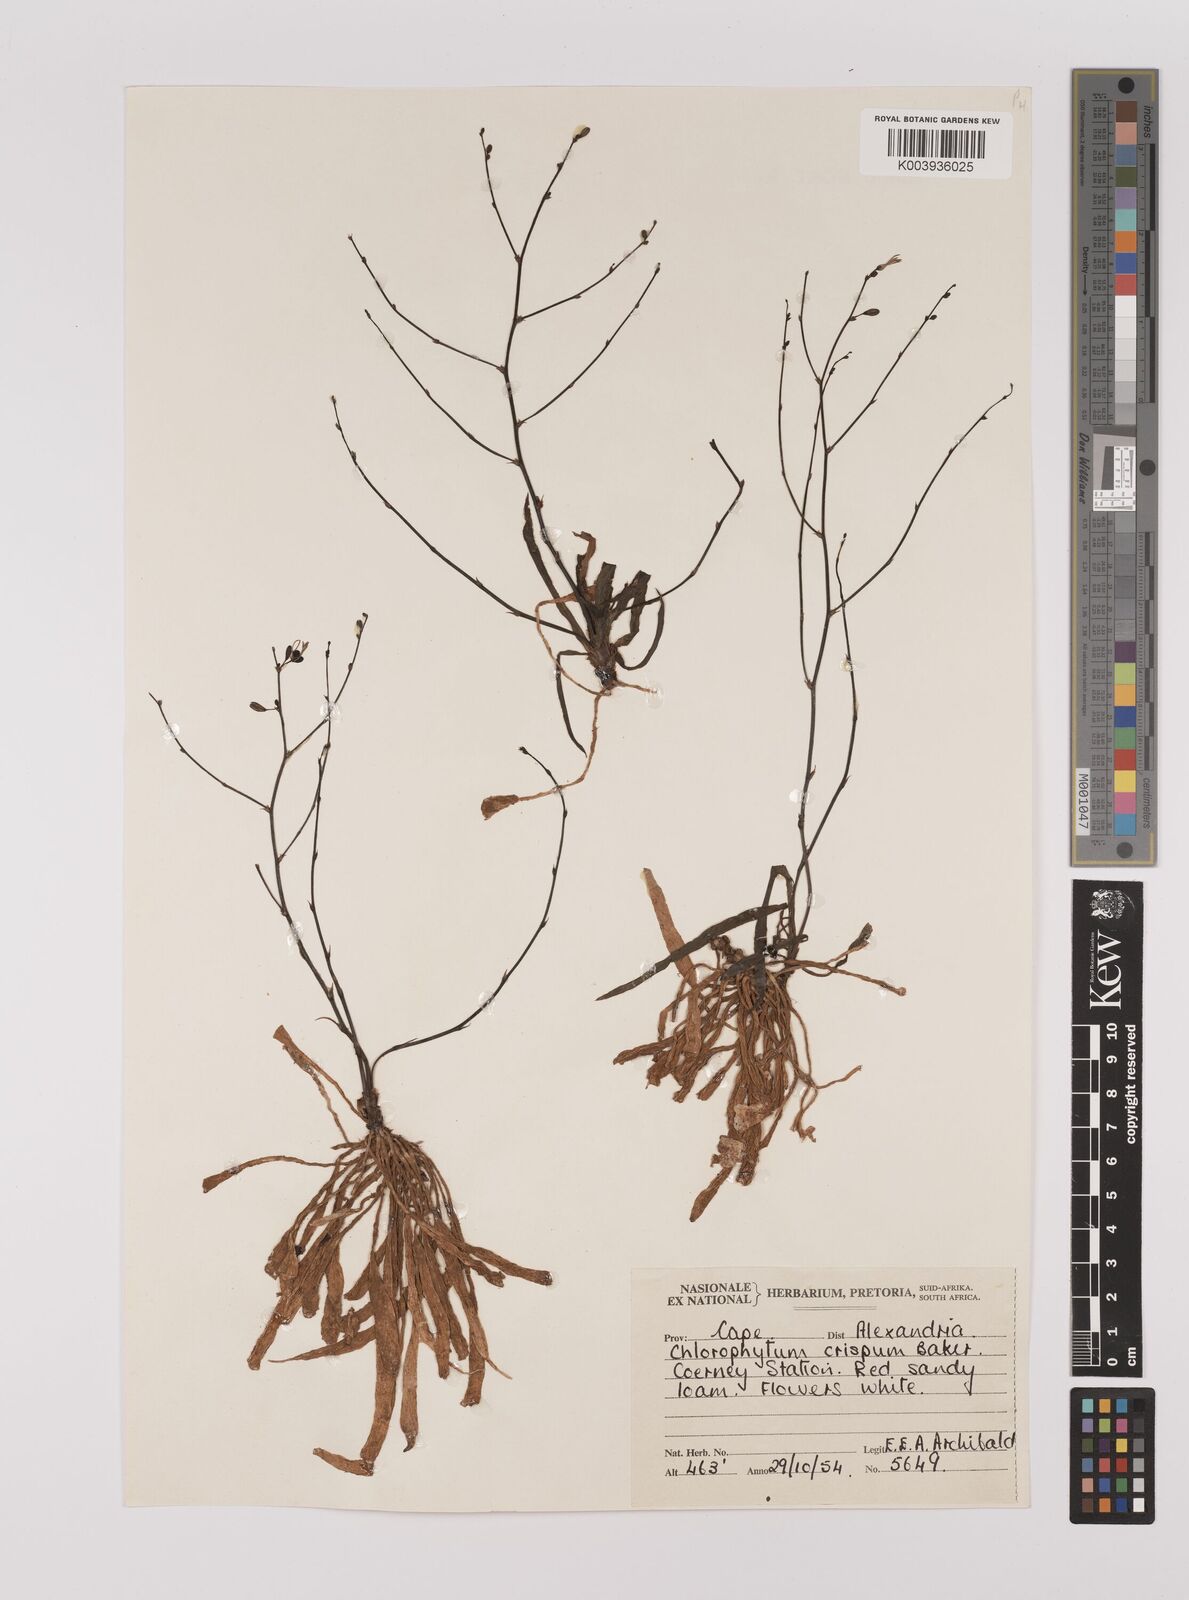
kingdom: Plantae
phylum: Tracheophyta
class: Liliopsida
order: Asparagales
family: Asparagaceae
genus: Chlorophytum
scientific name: Chlorophytum crispum
